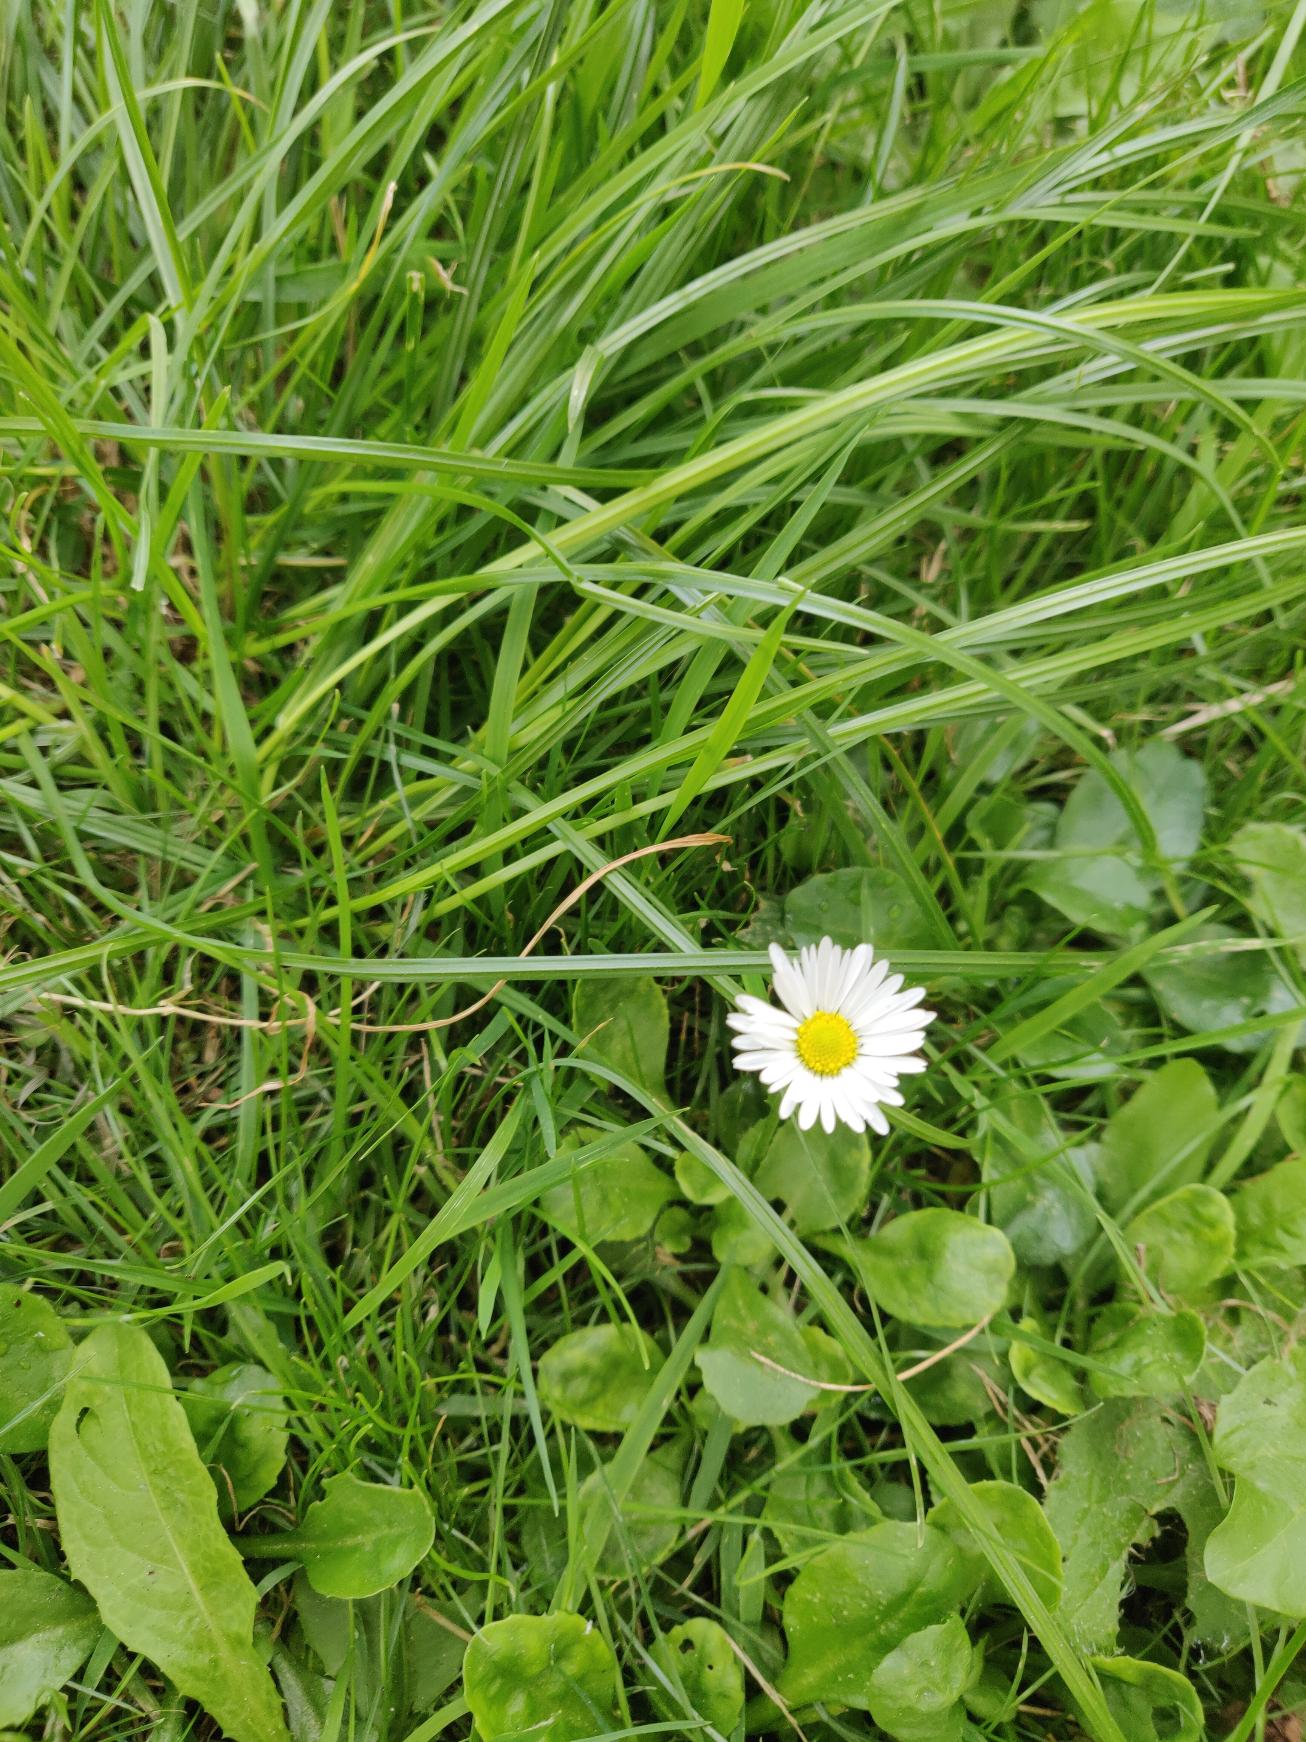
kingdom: Plantae
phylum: Tracheophyta
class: Magnoliopsida
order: Asterales
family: Asteraceae
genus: Bellis
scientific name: Bellis perennis
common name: Tusindfryd
